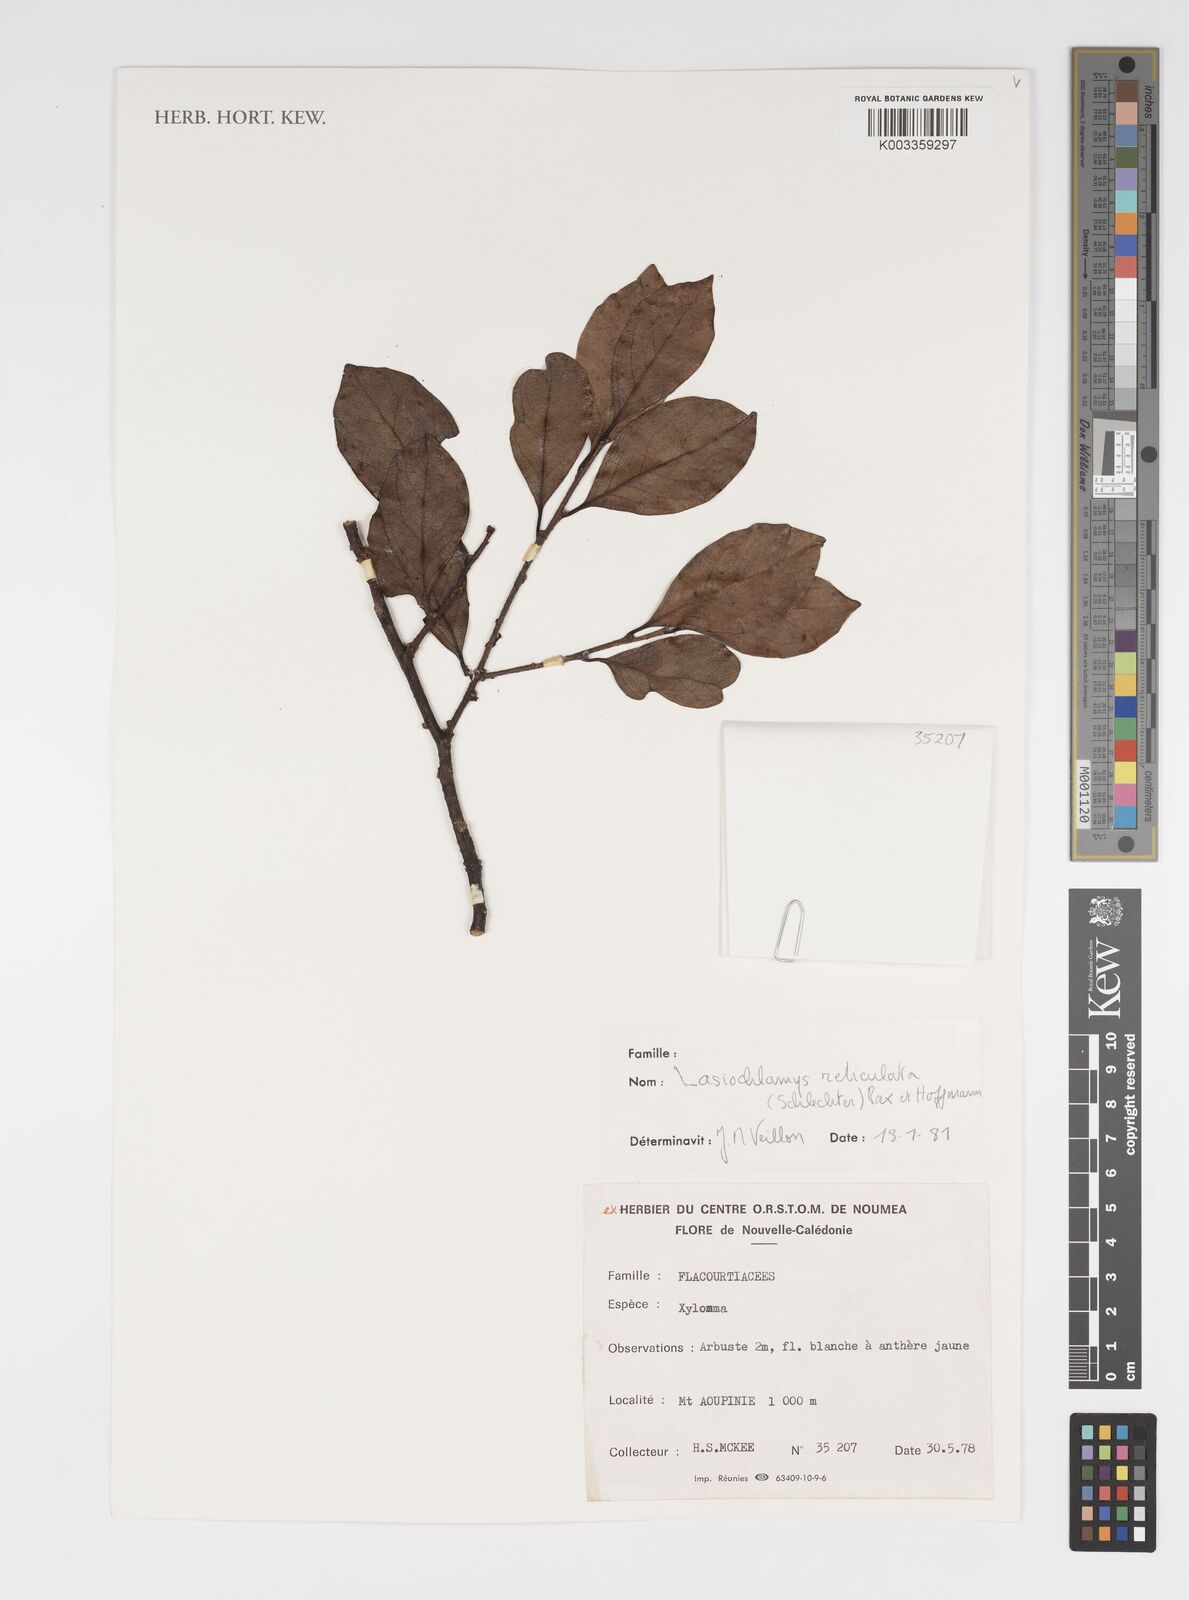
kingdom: Plantae
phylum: Tracheophyta
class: Magnoliopsida
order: Malpighiales
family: Salicaceae
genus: Lasiochlamys
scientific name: Lasiochlamys reticulata
